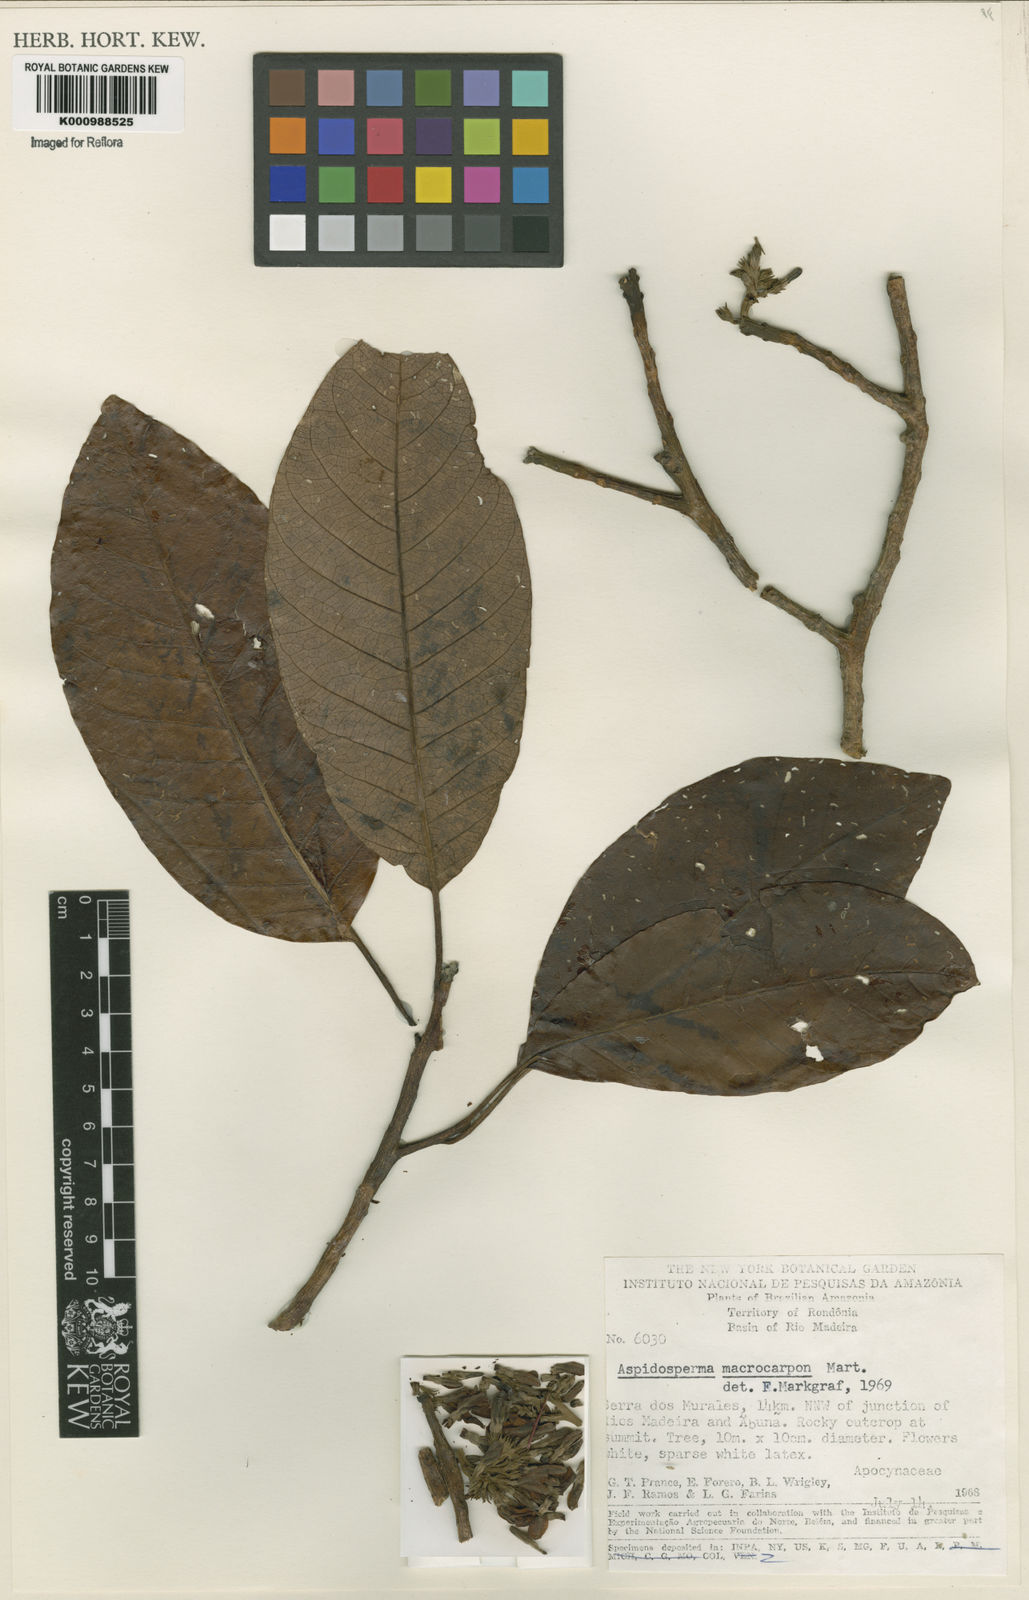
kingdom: Plantae
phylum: Tracheophyta
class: Magnoliopsida
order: Gentianales
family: Apocynaceae
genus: Aspidosperma
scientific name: Aspidosperma macrocarpon
